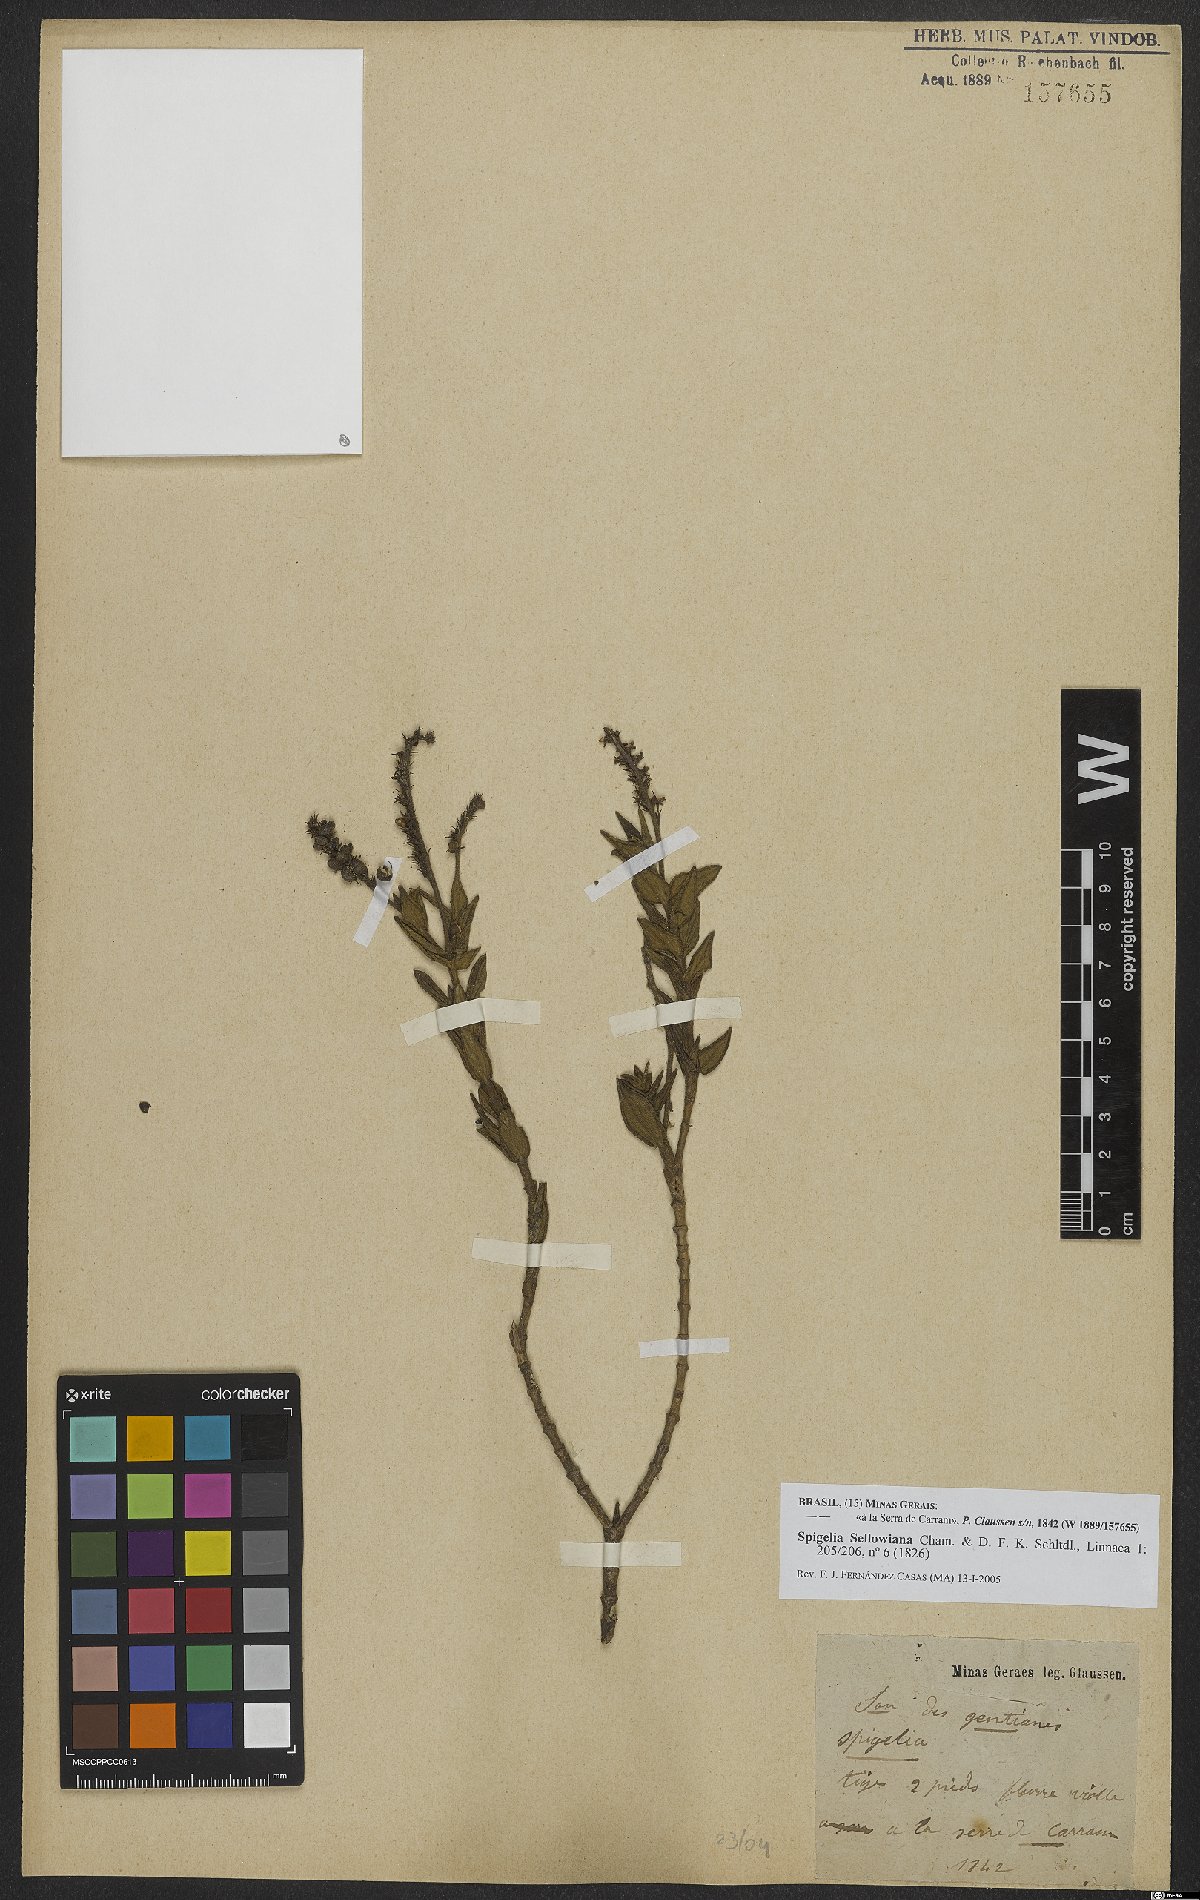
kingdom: Plantae
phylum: Tracheophyta
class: Magnoliopsida
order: Gentianales
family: Loganiaceae
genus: Spigelia
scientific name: Spigelia sellowiana
